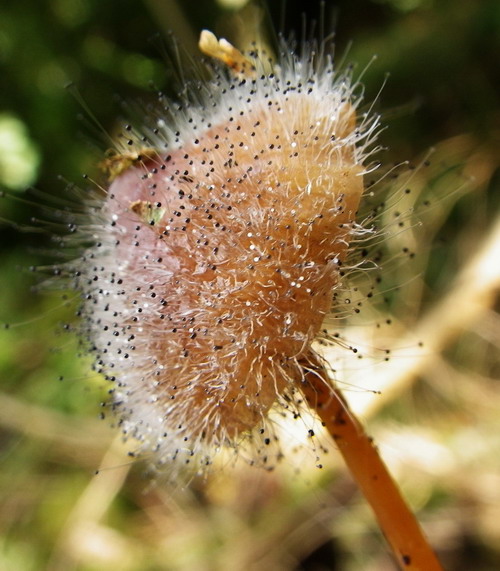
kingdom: Fungi
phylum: Mucoromycota
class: Mucoromycetes
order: Mucorales
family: Phycomycetaceae
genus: Spinellus
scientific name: Spinellus fusiger
